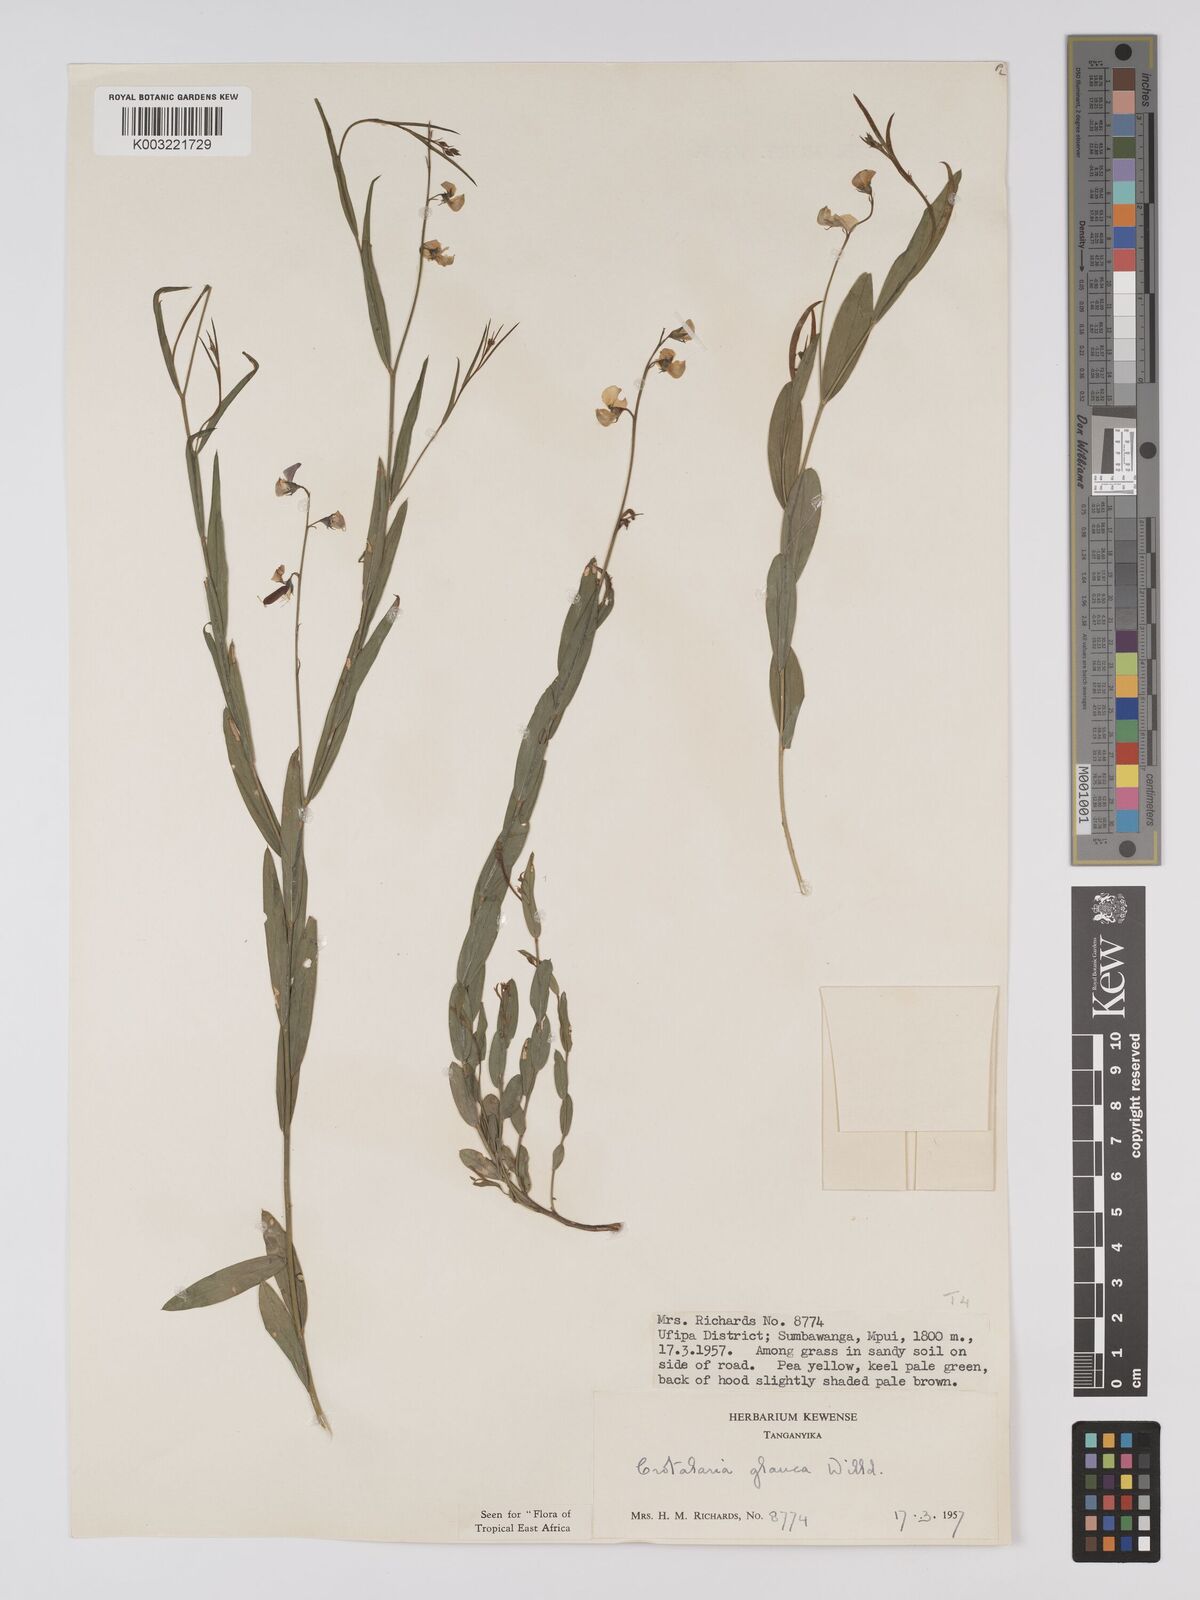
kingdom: Plantae
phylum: Tracheophyta
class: Magnoliopsida
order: Fabales
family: Fabaceae
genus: Crotalaria
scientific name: Crotalaria glauca
